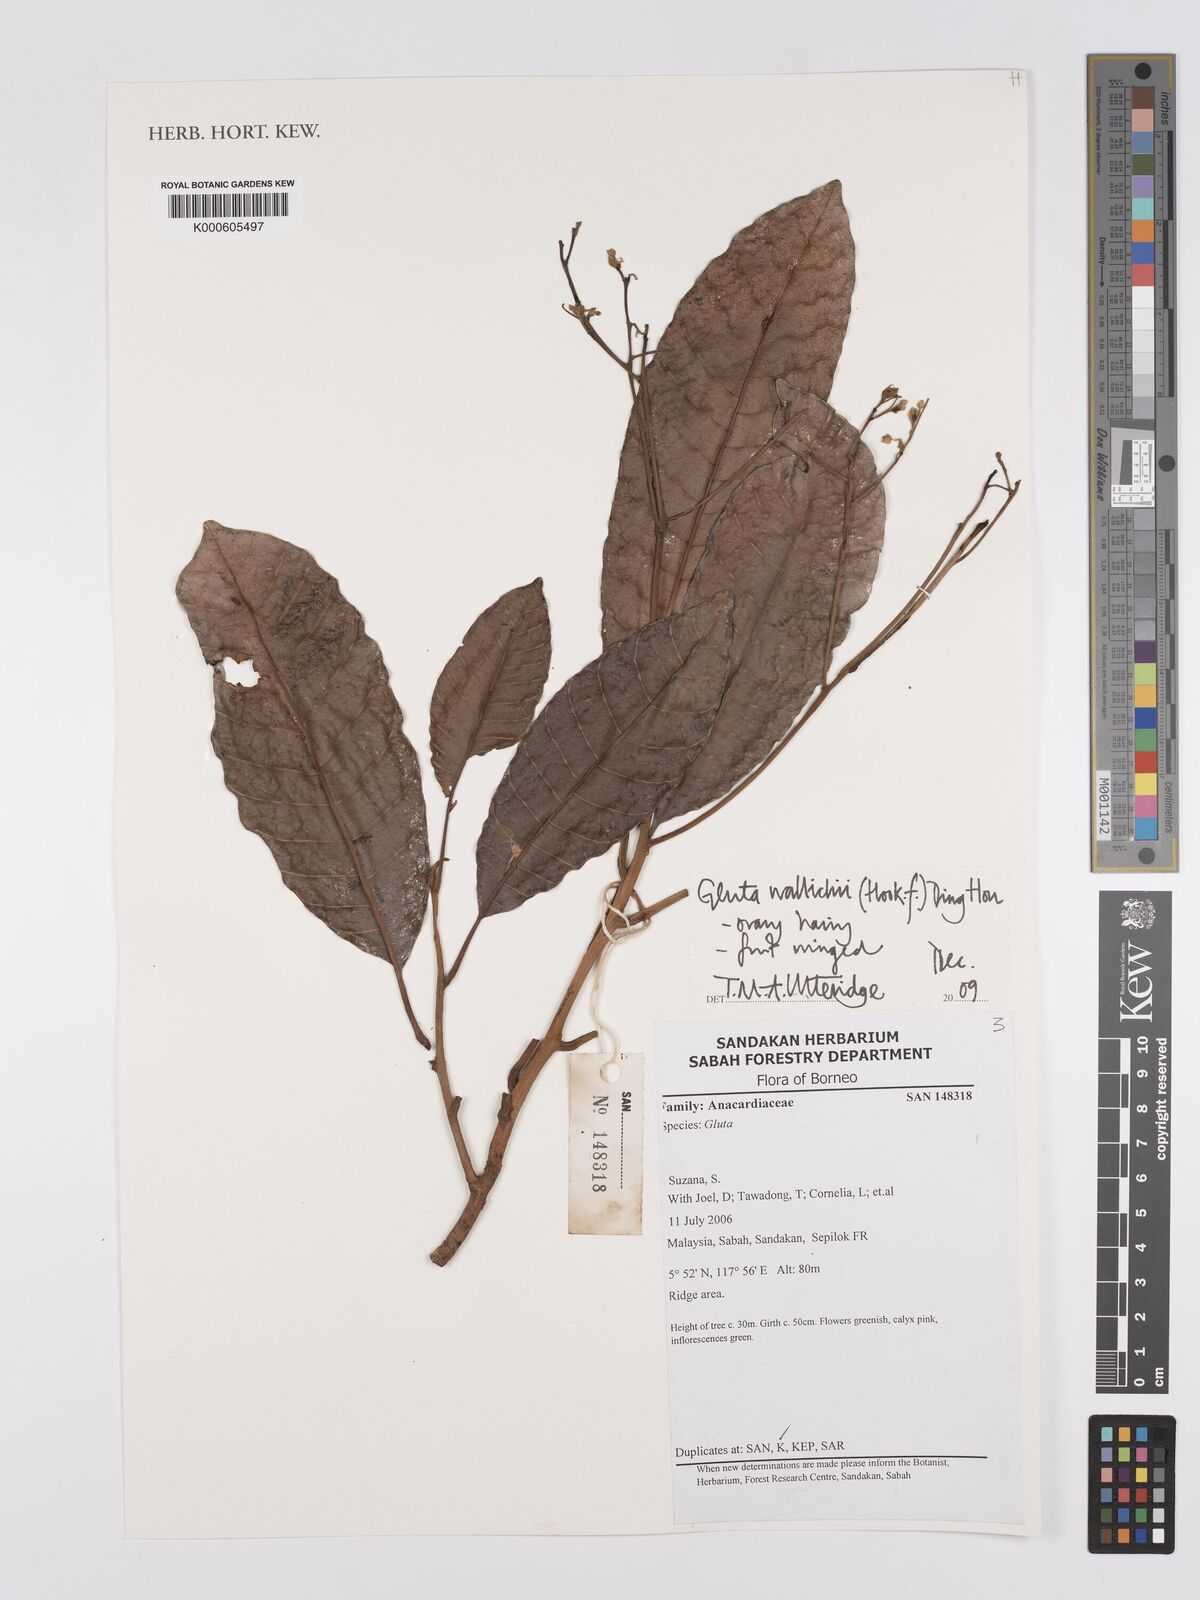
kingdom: Plantae
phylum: Tracheophyta
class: Magnoliopsida
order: Sapindales
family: Anacardiaceae
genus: Gluta
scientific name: Gluta wallichii
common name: Common rengas
